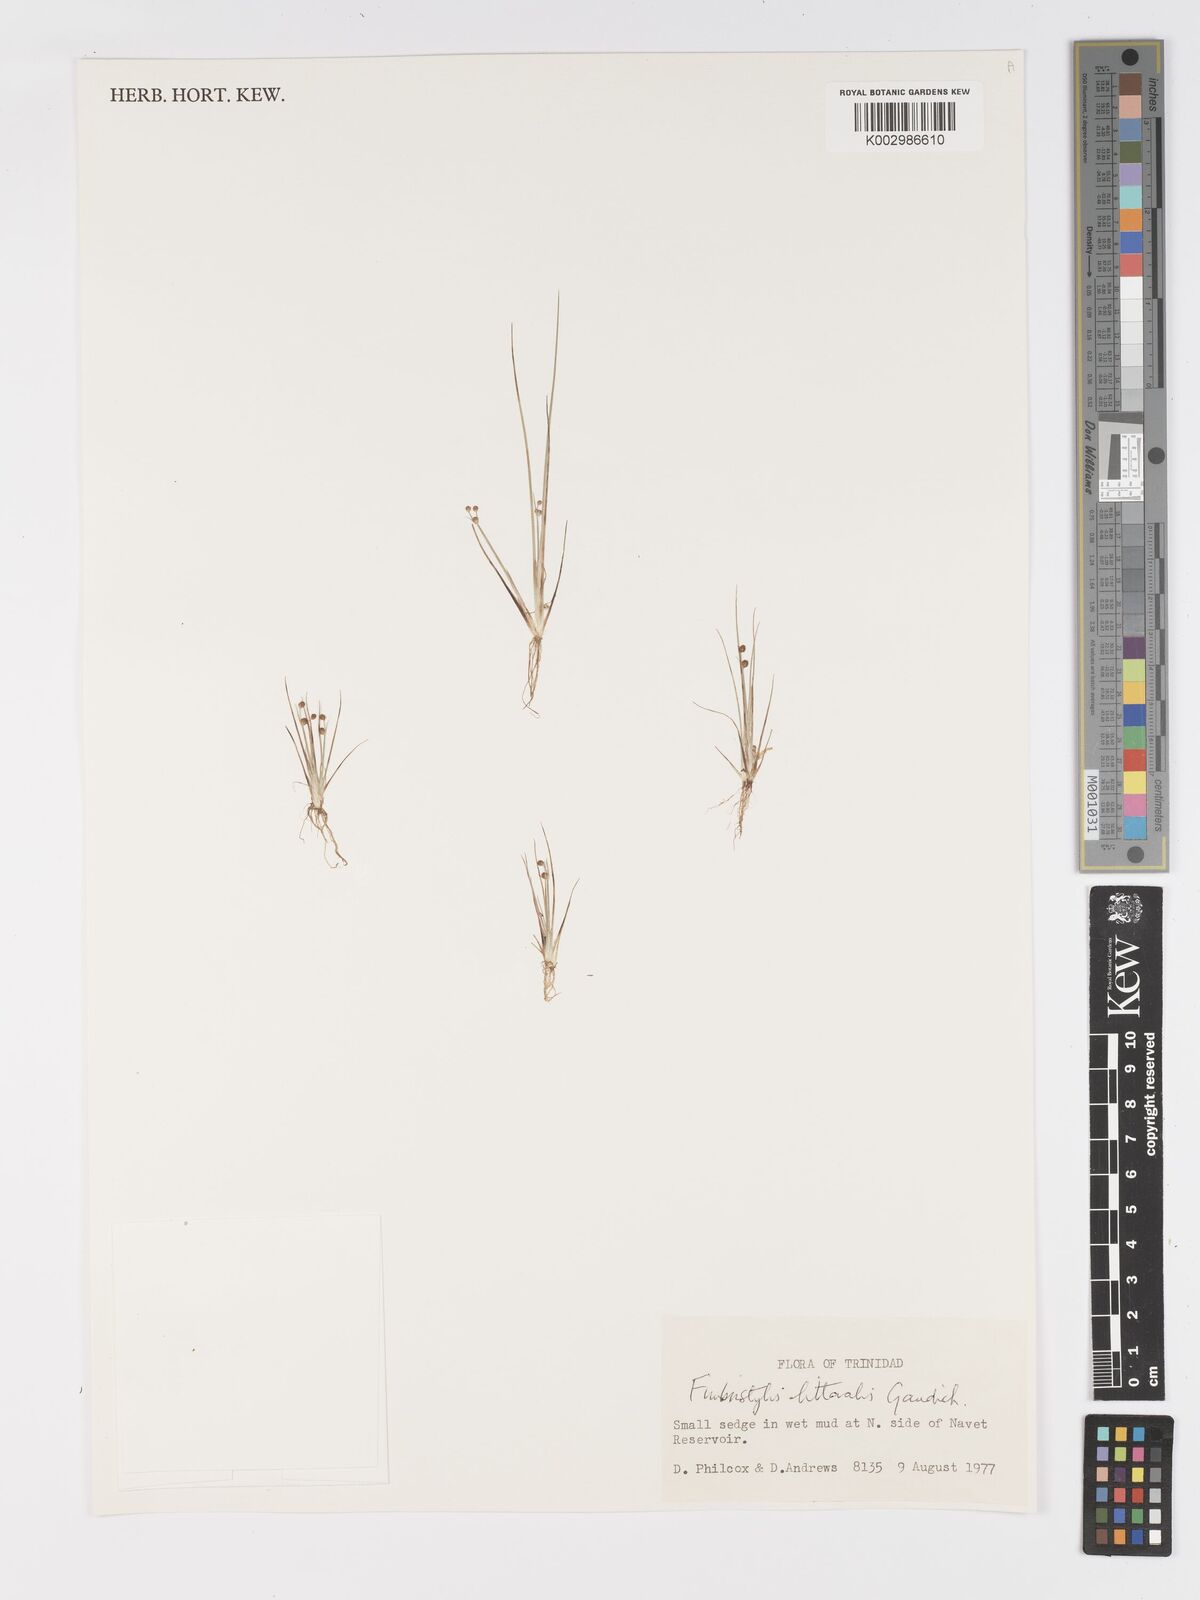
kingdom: Plantae
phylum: Tracheophyta
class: Liliopsida
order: Poales
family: Cyperaceae
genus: Fimbristylis
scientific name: Fimbristylis littoralis
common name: Fimbry
